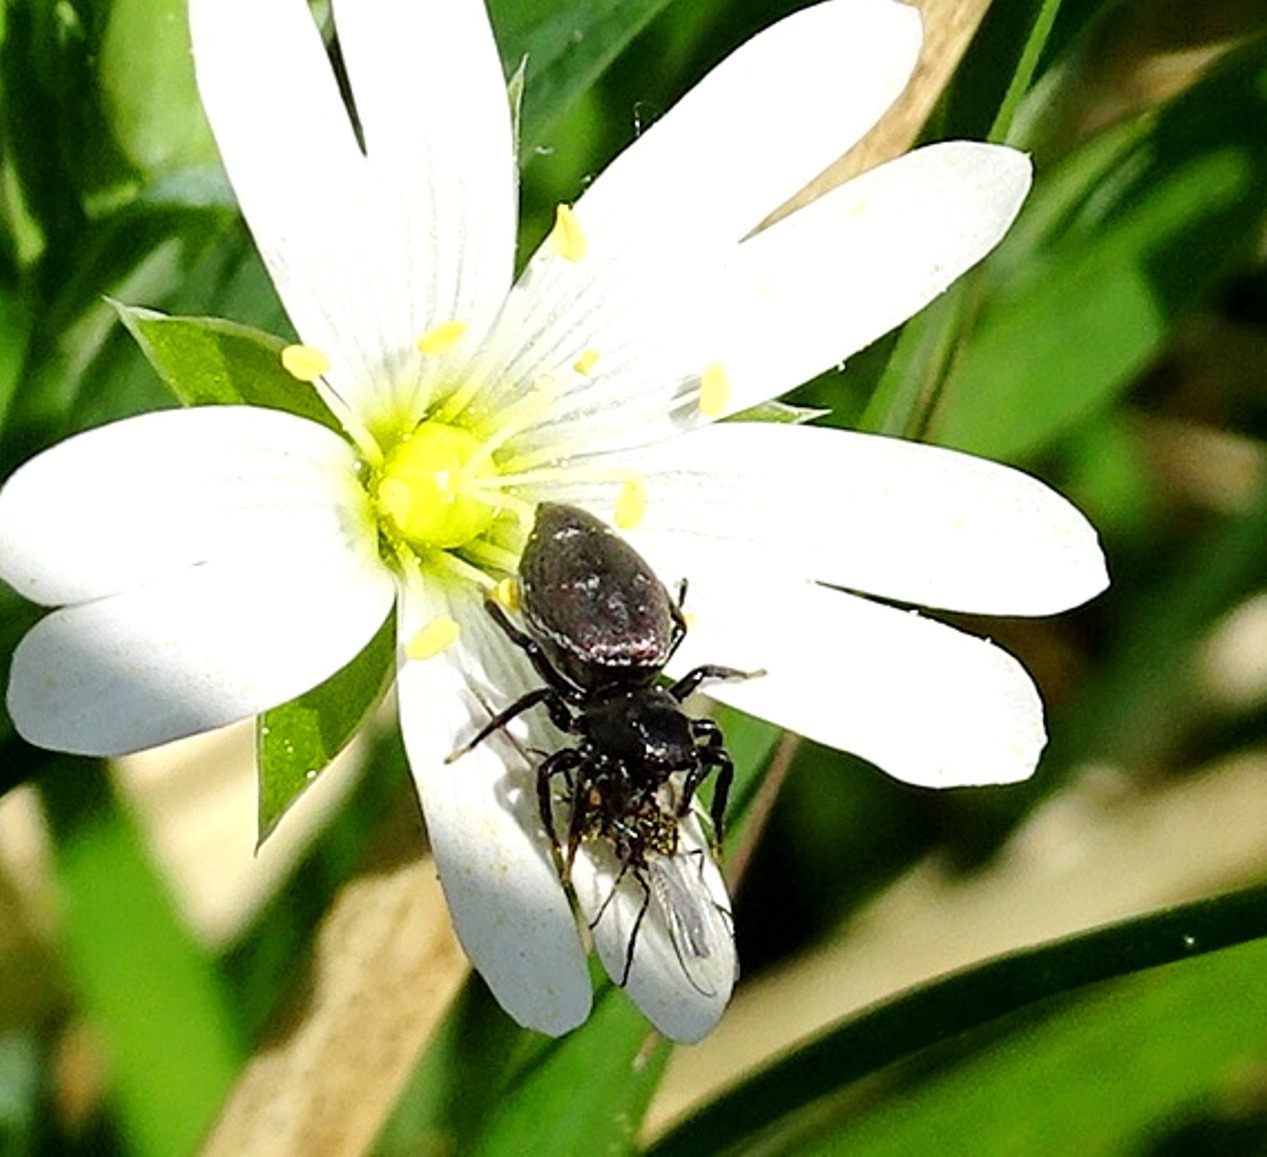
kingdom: Animalia
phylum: Arthropoda
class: Arachnida
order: Araneae
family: Salticidae
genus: Heliophanus
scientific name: Heliophanus
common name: Sortspringerslægten
